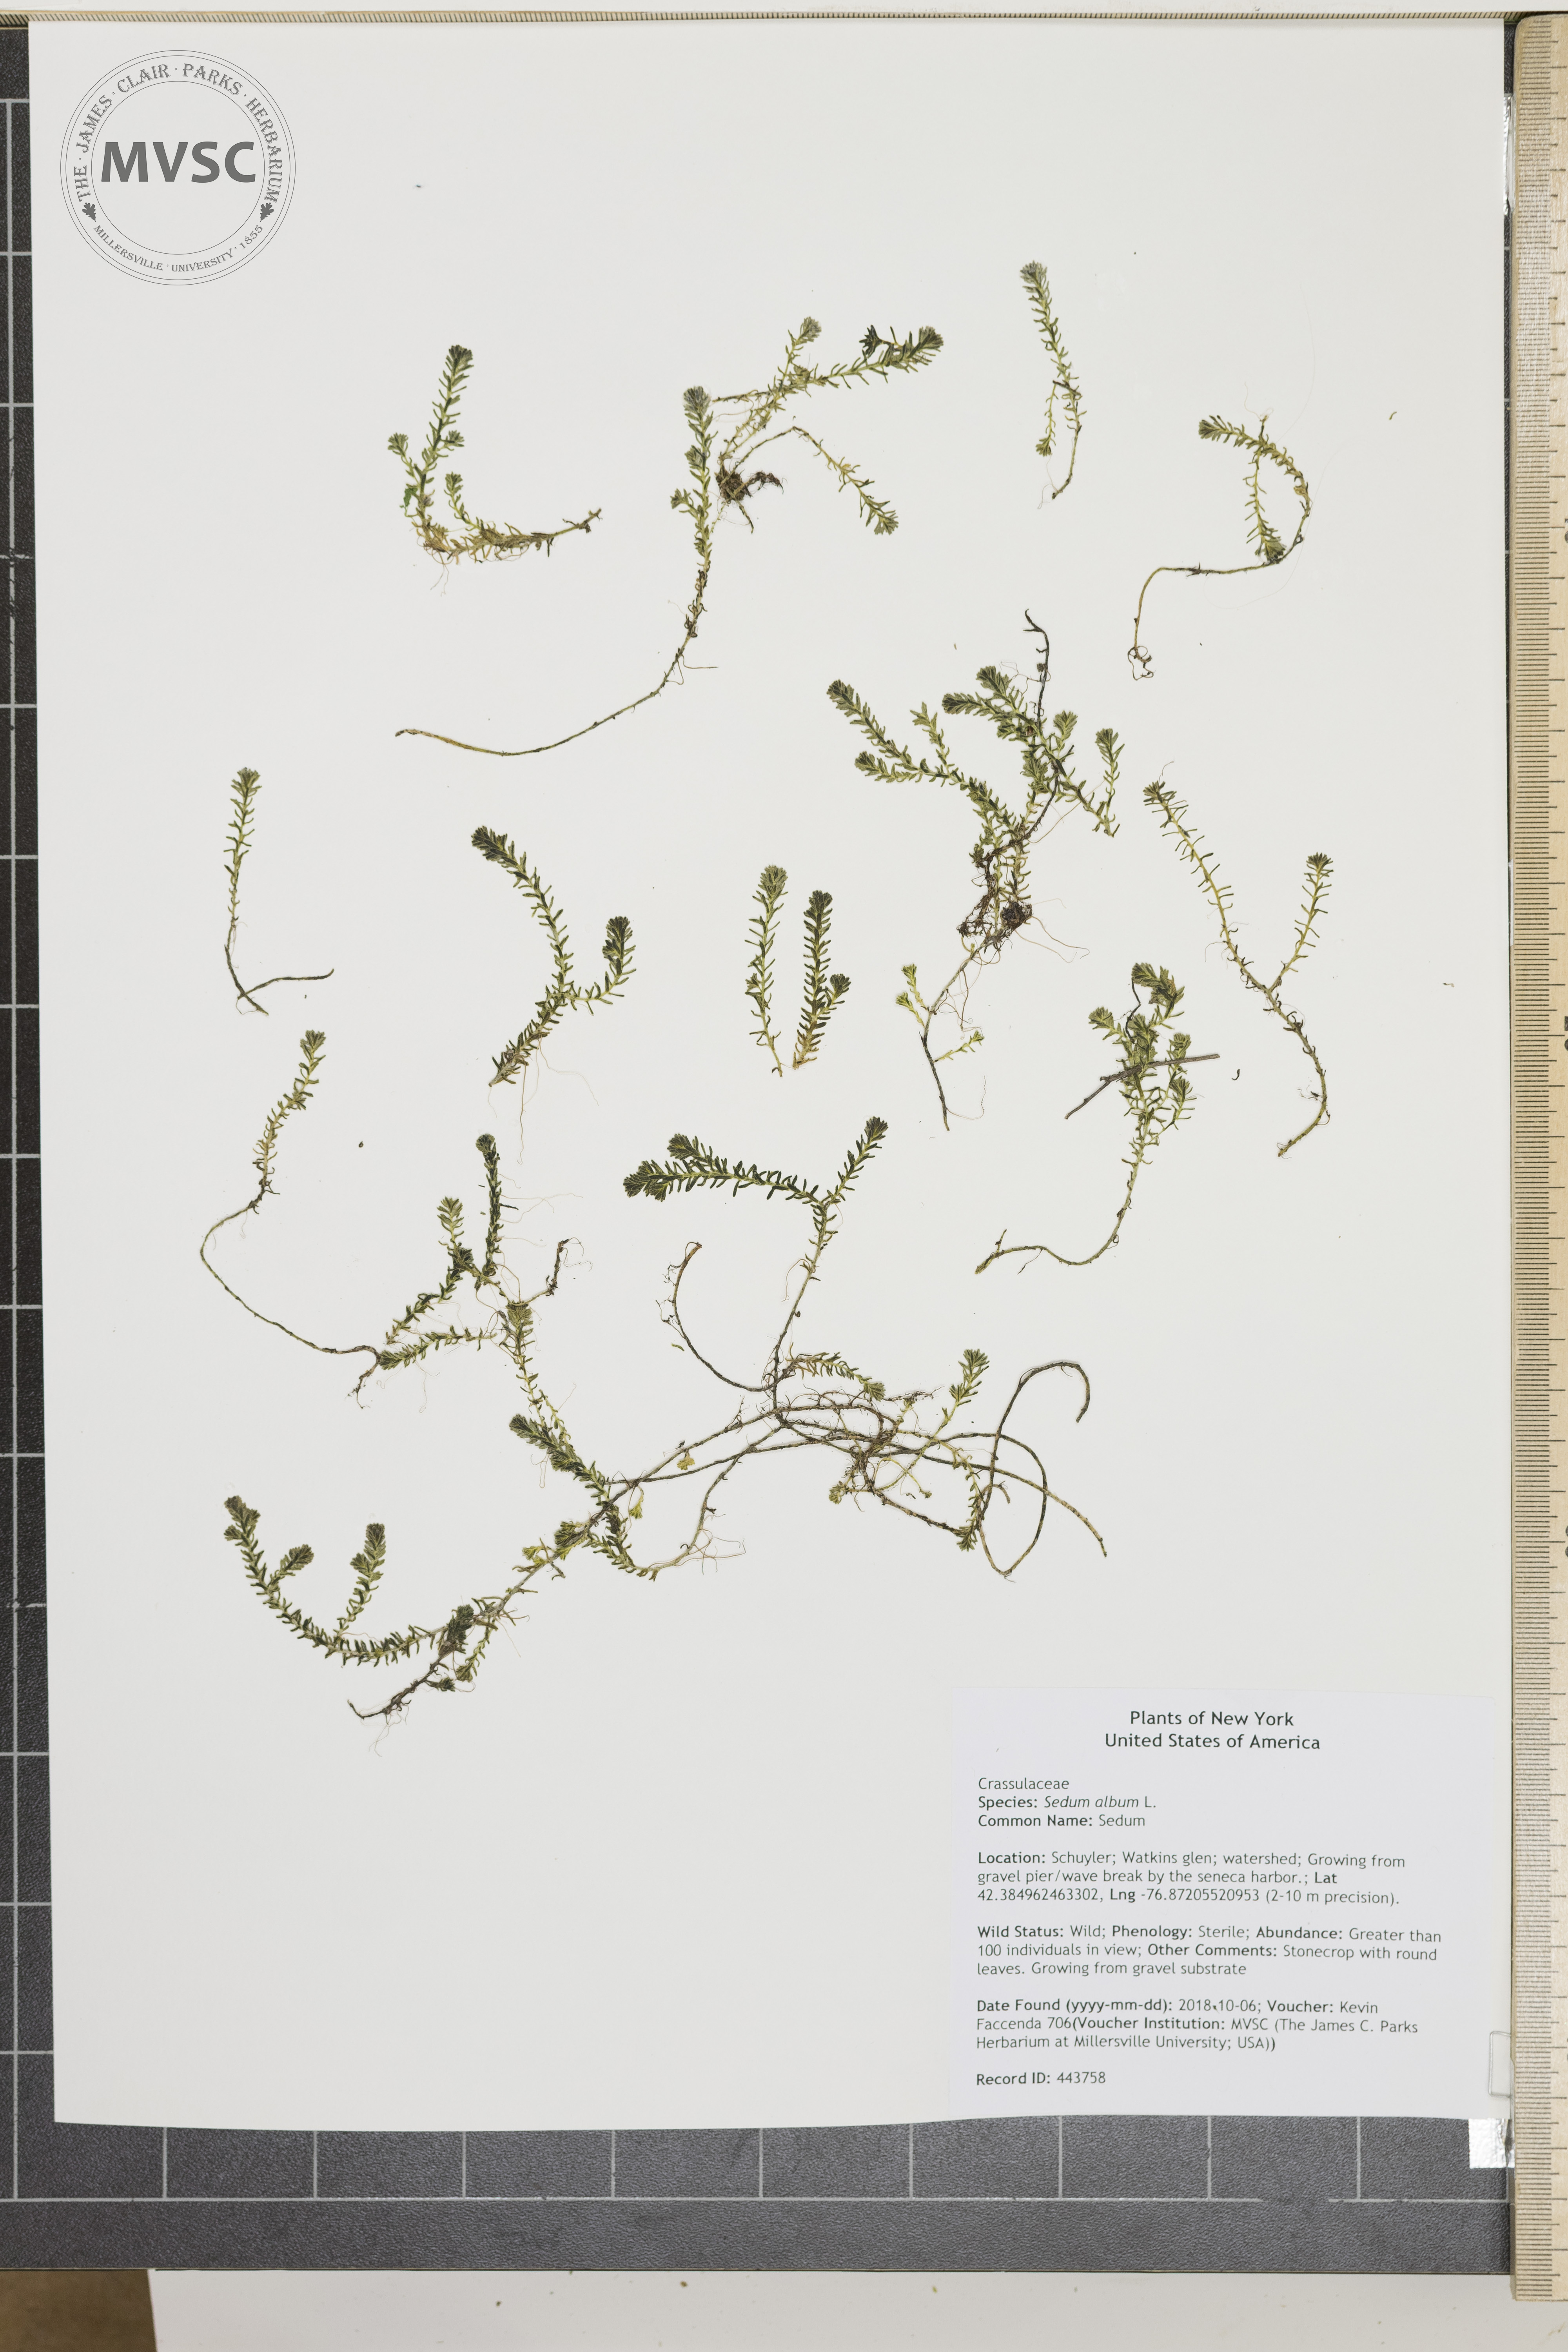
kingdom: Plantae
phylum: Tracheophyta
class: Magnoliopsida
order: Saxifragales
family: Crassulaceae
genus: Sedum
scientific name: Sedum album
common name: Sedum
